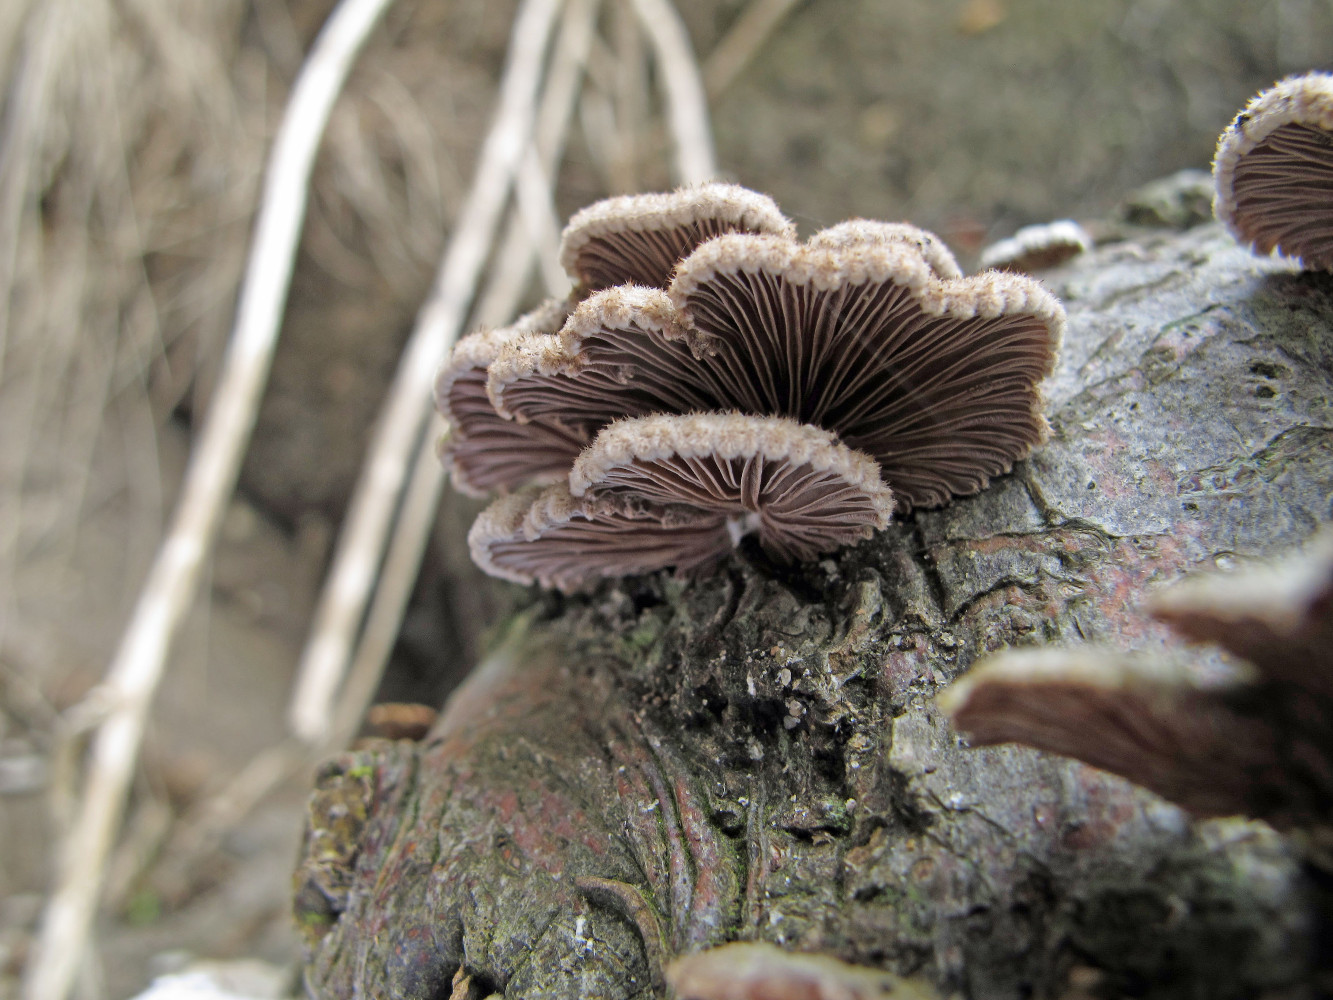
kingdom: Fungi
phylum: Basidiomycota
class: Agaricomycetes
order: Agaricales
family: Schizophyllaceae
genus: Schizophyllum
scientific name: Schizophyllum commune
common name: kløvblad
